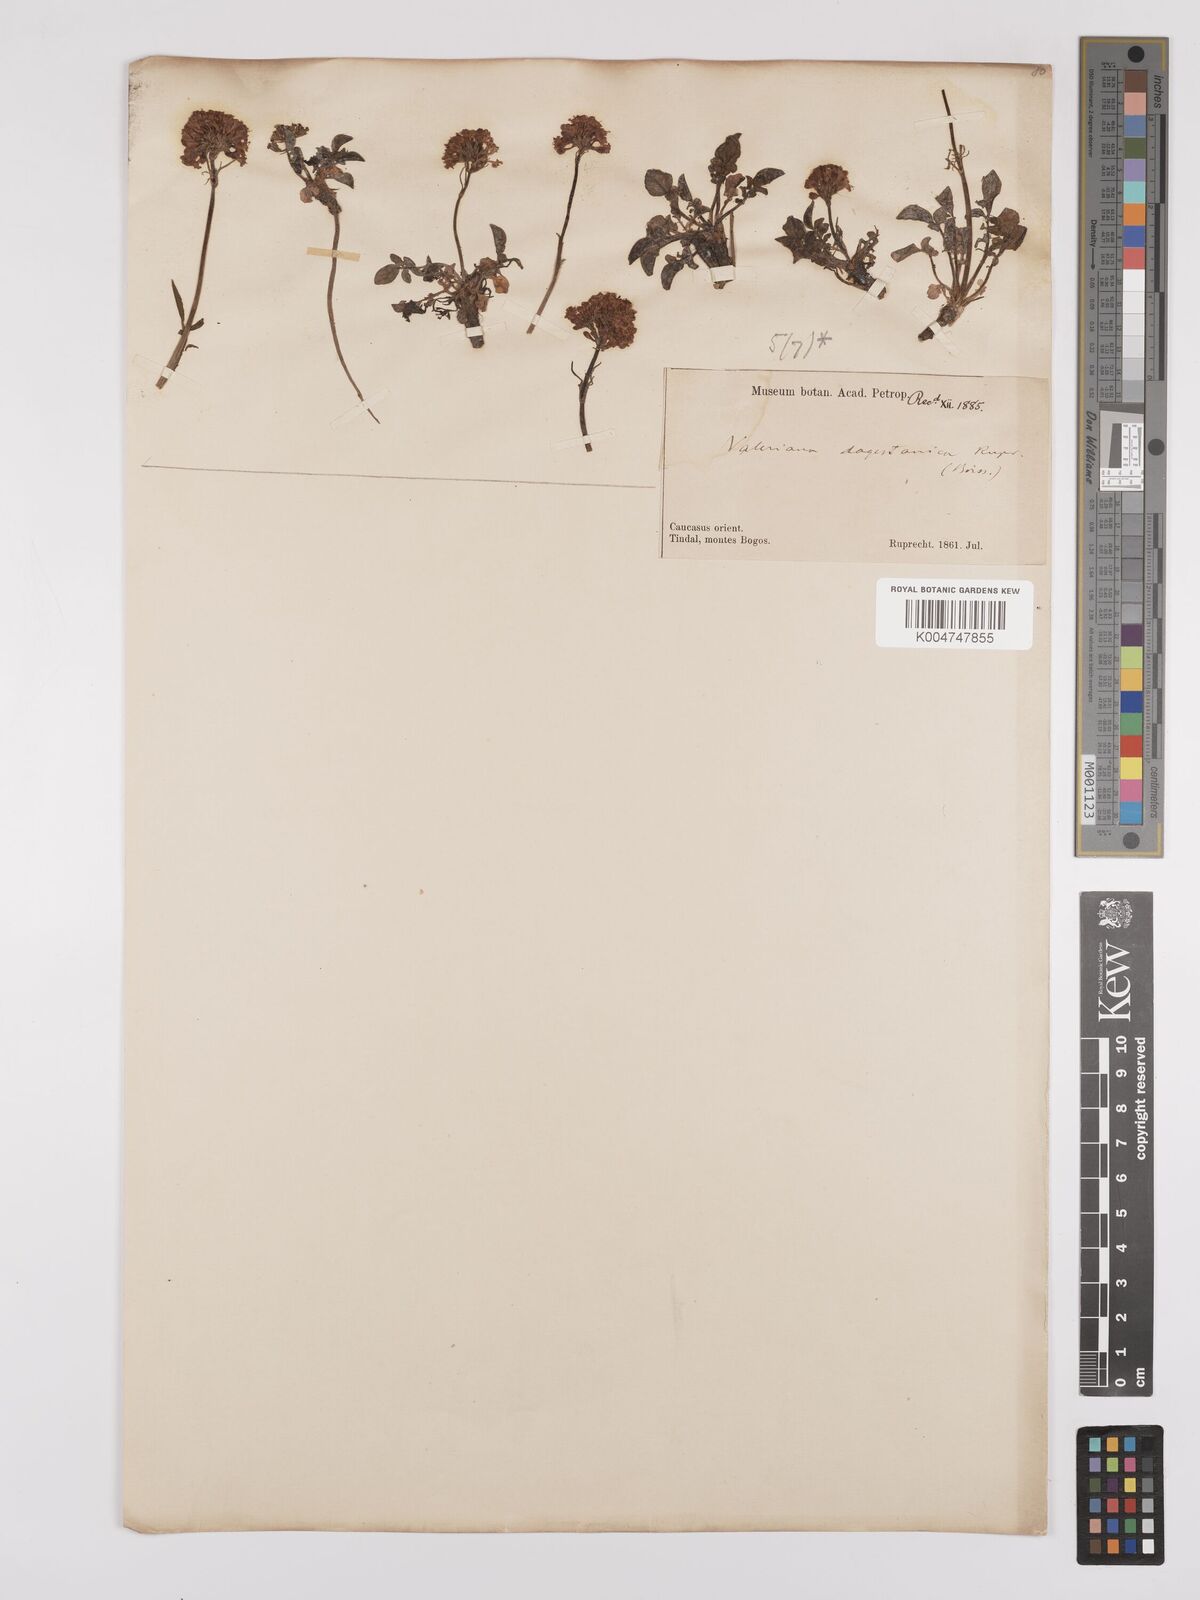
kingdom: Plantae
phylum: Tracheophyta
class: Magnoliopsida
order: Dipsacales
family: Caprifoliaceae
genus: Valeriana
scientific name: Valeriana daghestanica
